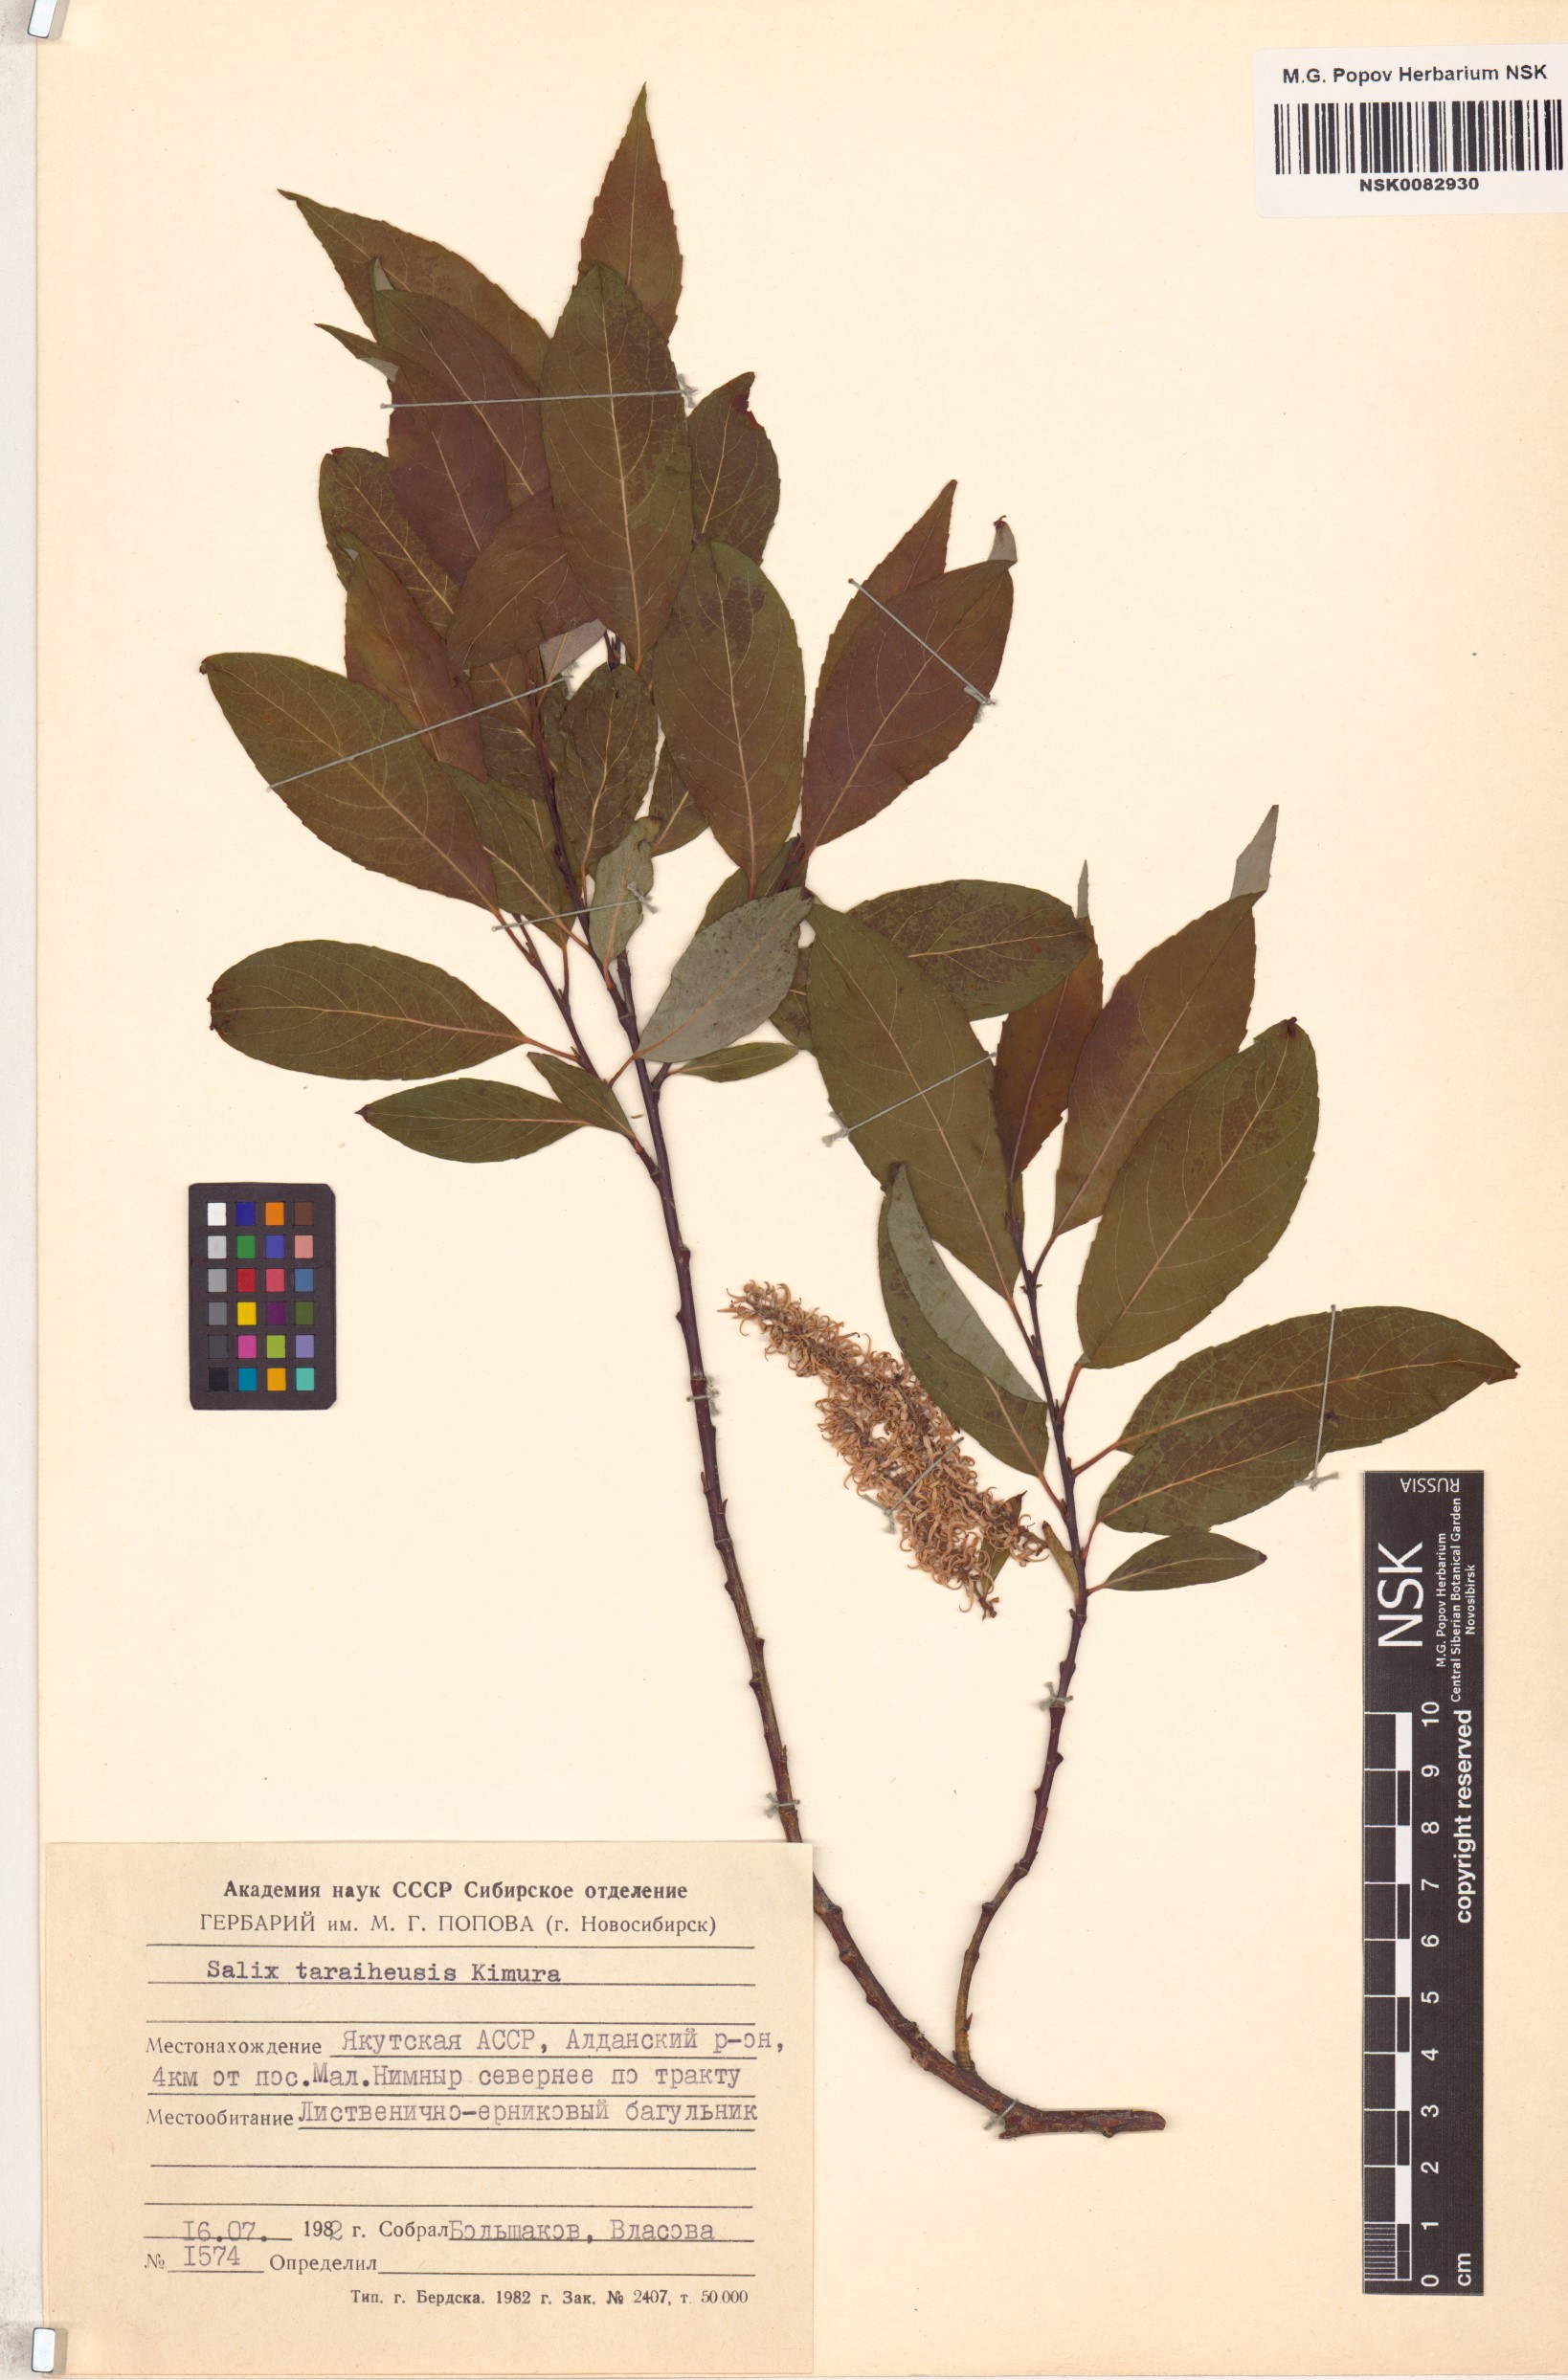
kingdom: Plantae
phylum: Tracheophyta
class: Magnoliopsida
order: Malpighiales
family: Salicaceae
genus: Salix
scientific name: Salix taraikensis
